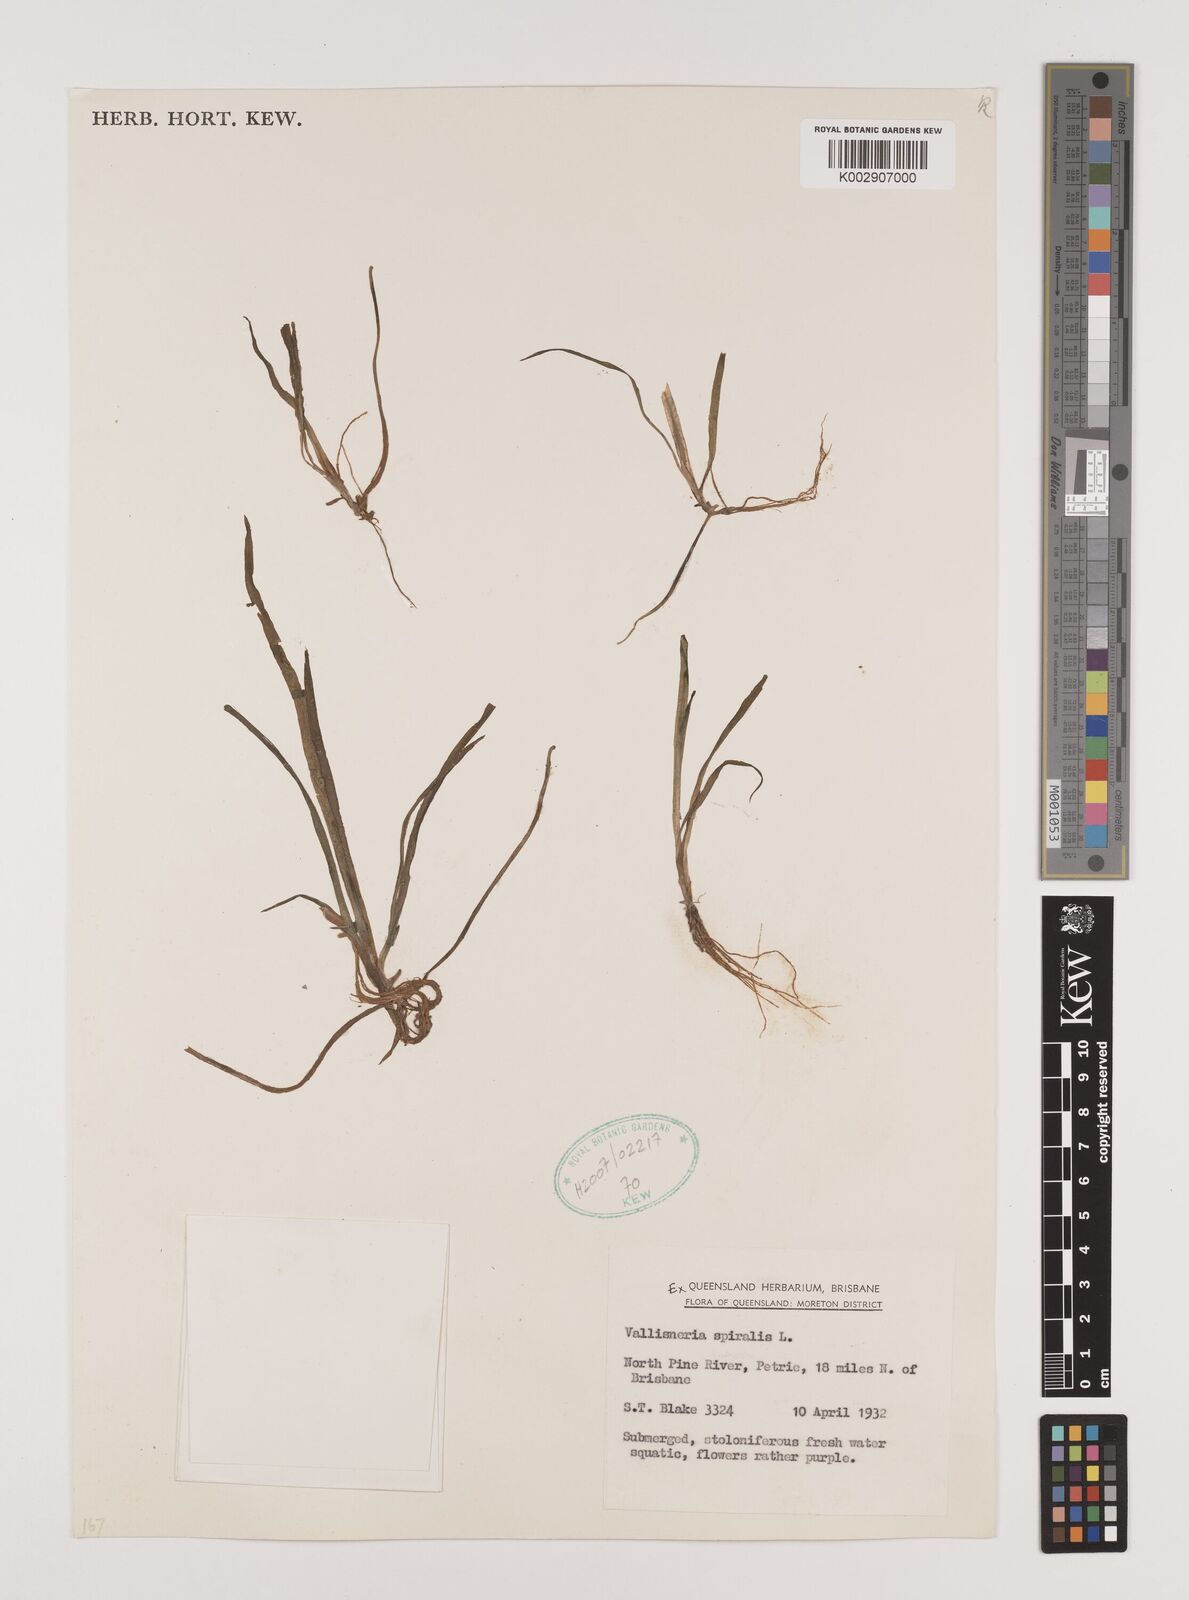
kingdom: Plantae
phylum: Tracheophyta
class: Liliopsida
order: Alismatales
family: Hydrocharitaceae
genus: Vallisneria
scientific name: Vallisneria spiralis
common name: Tapegrass
